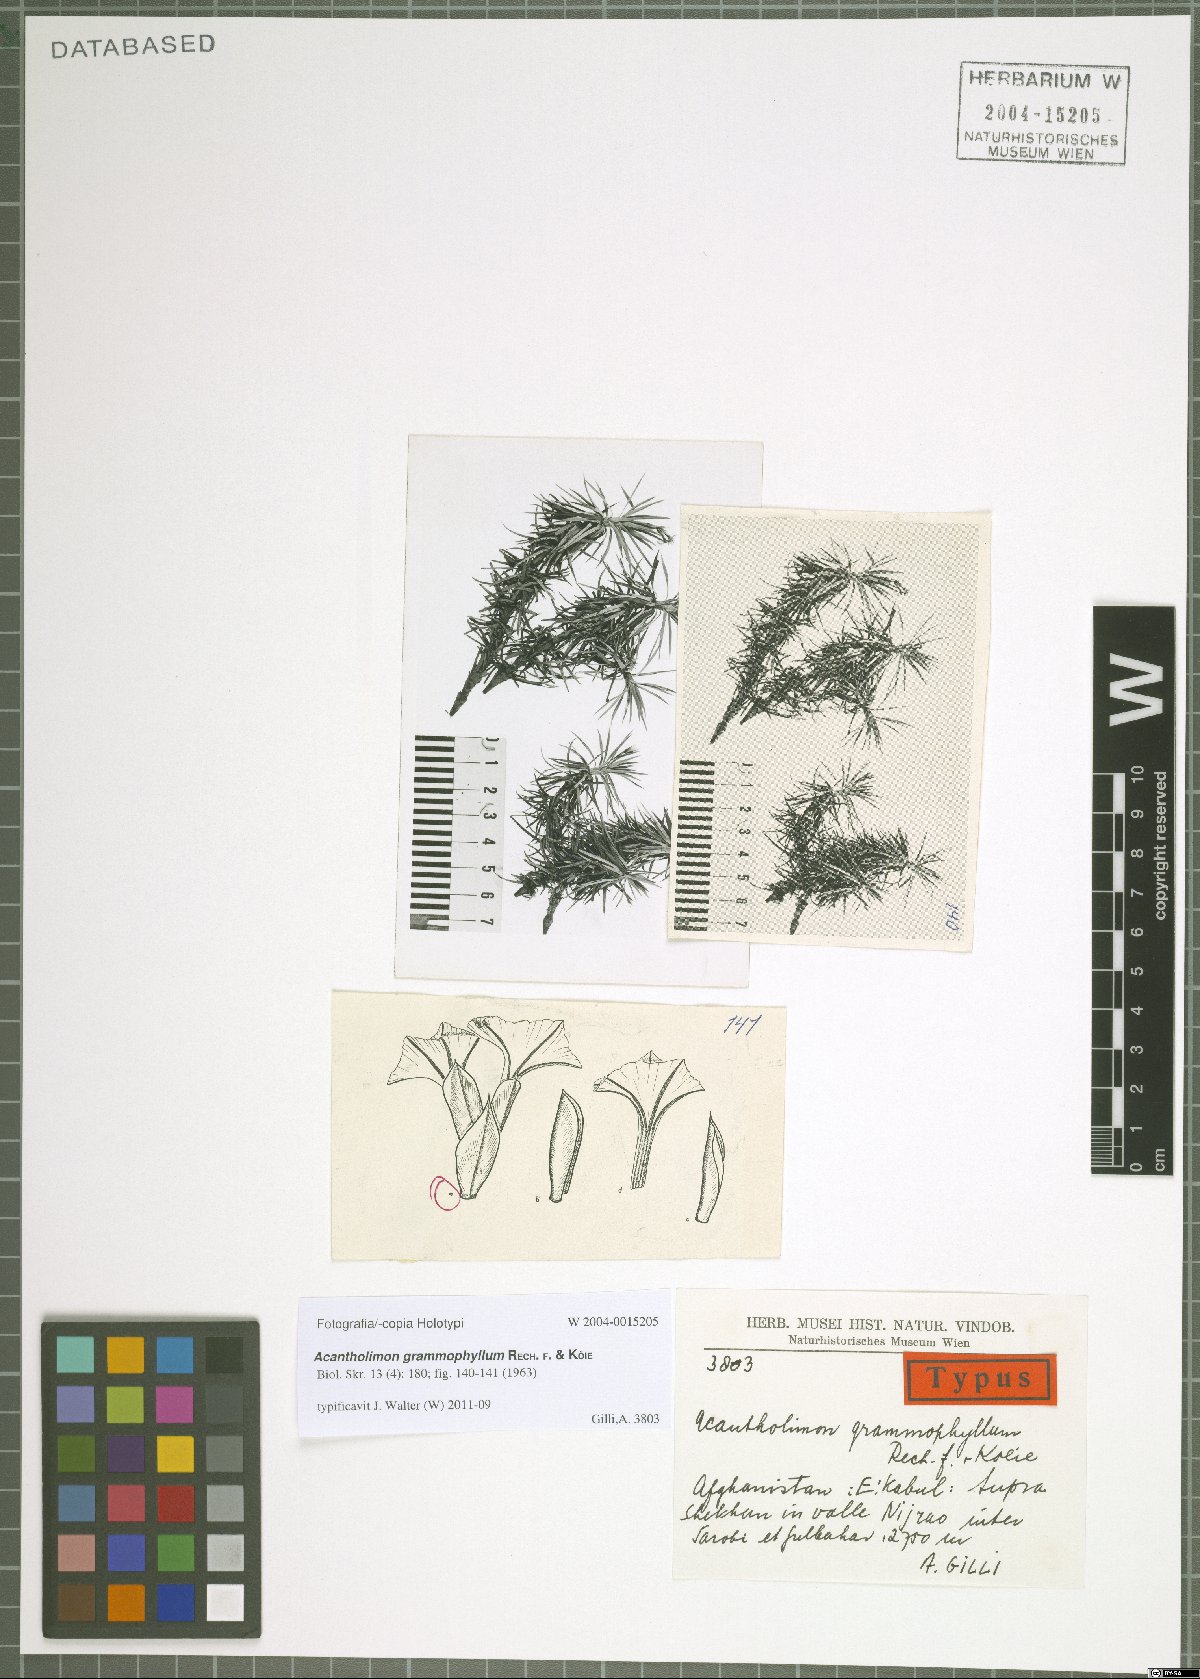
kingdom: Plantae
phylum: Tracheophyta
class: Magnoliopsida
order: Caryophyllales
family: Plumbaginaceae
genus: Acantholimon
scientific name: Acantholimon grammophyllum
